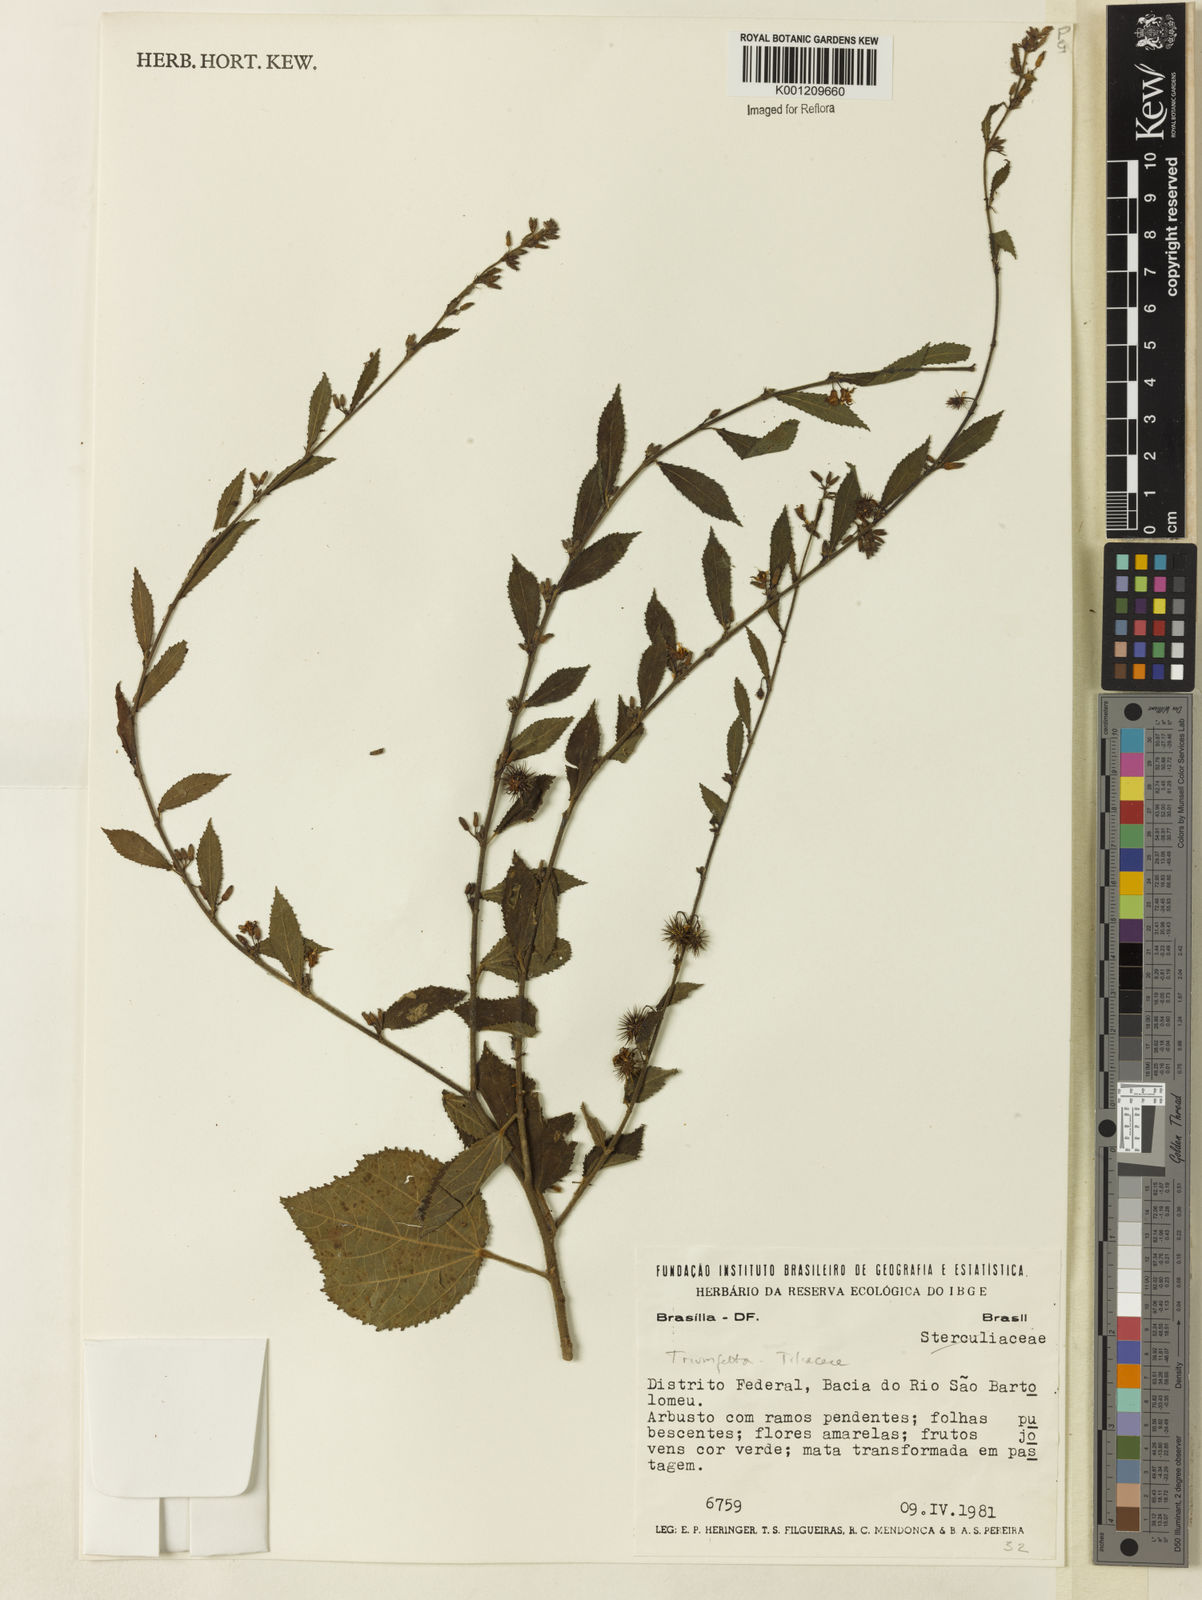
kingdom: Plantae
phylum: Tracheophyta
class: Magnoliopsida
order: Malvales
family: Malvaceae
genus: Triumfetta
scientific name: Triumfetta
